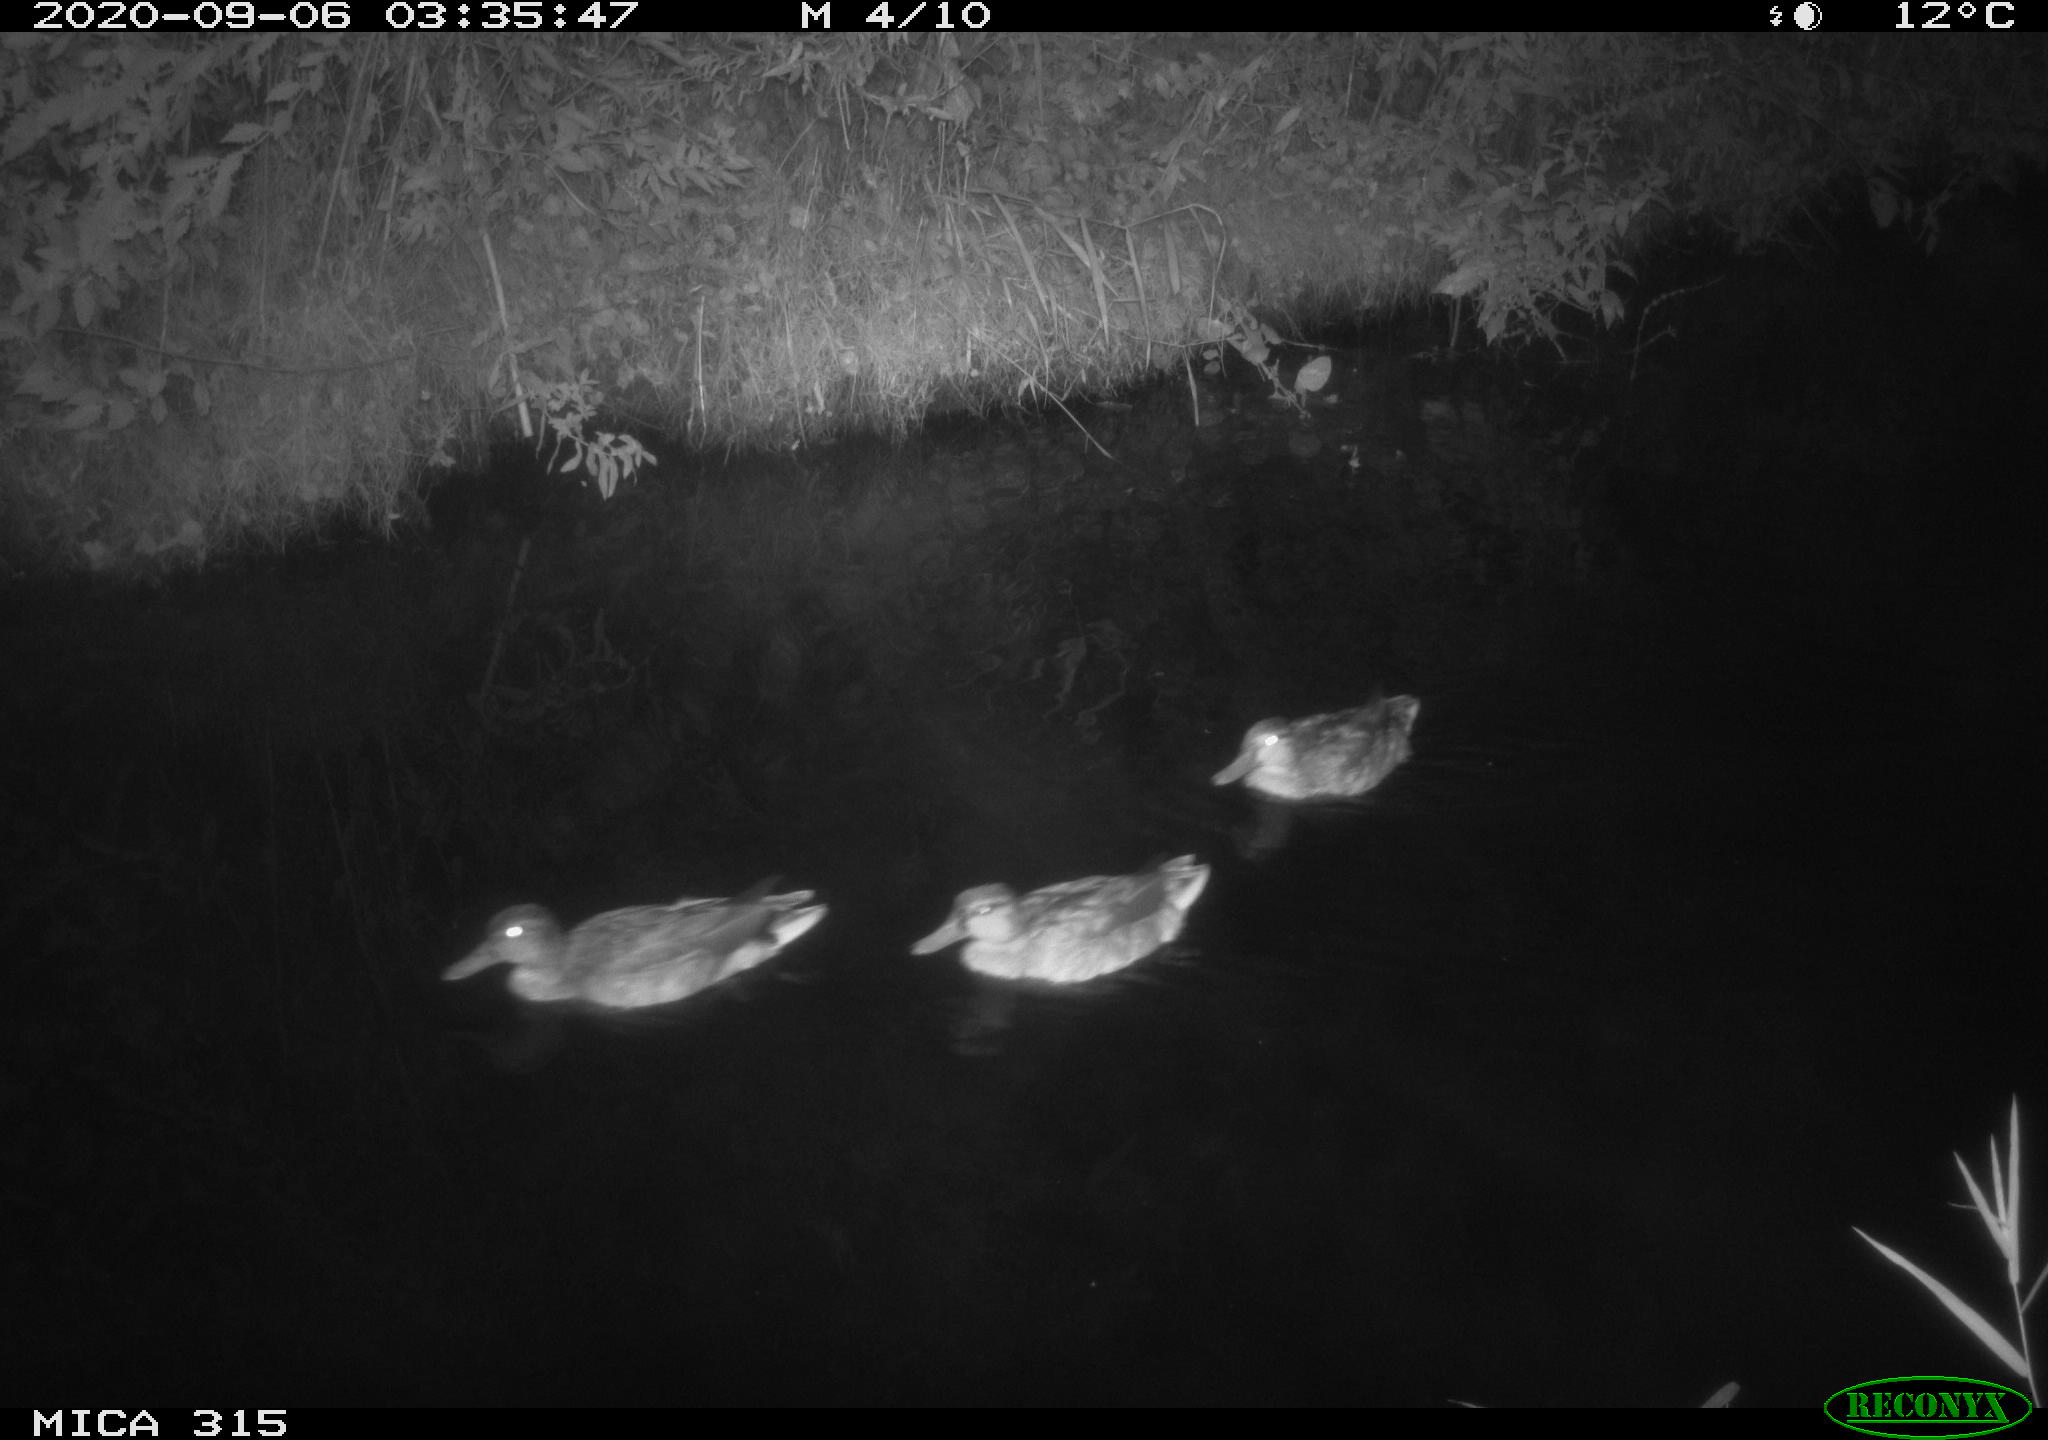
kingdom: Animalia
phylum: Chordata
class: Aves
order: Anseriformes
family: Anatidae
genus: Anas
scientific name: Anas platyrhynchos
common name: Mallard
